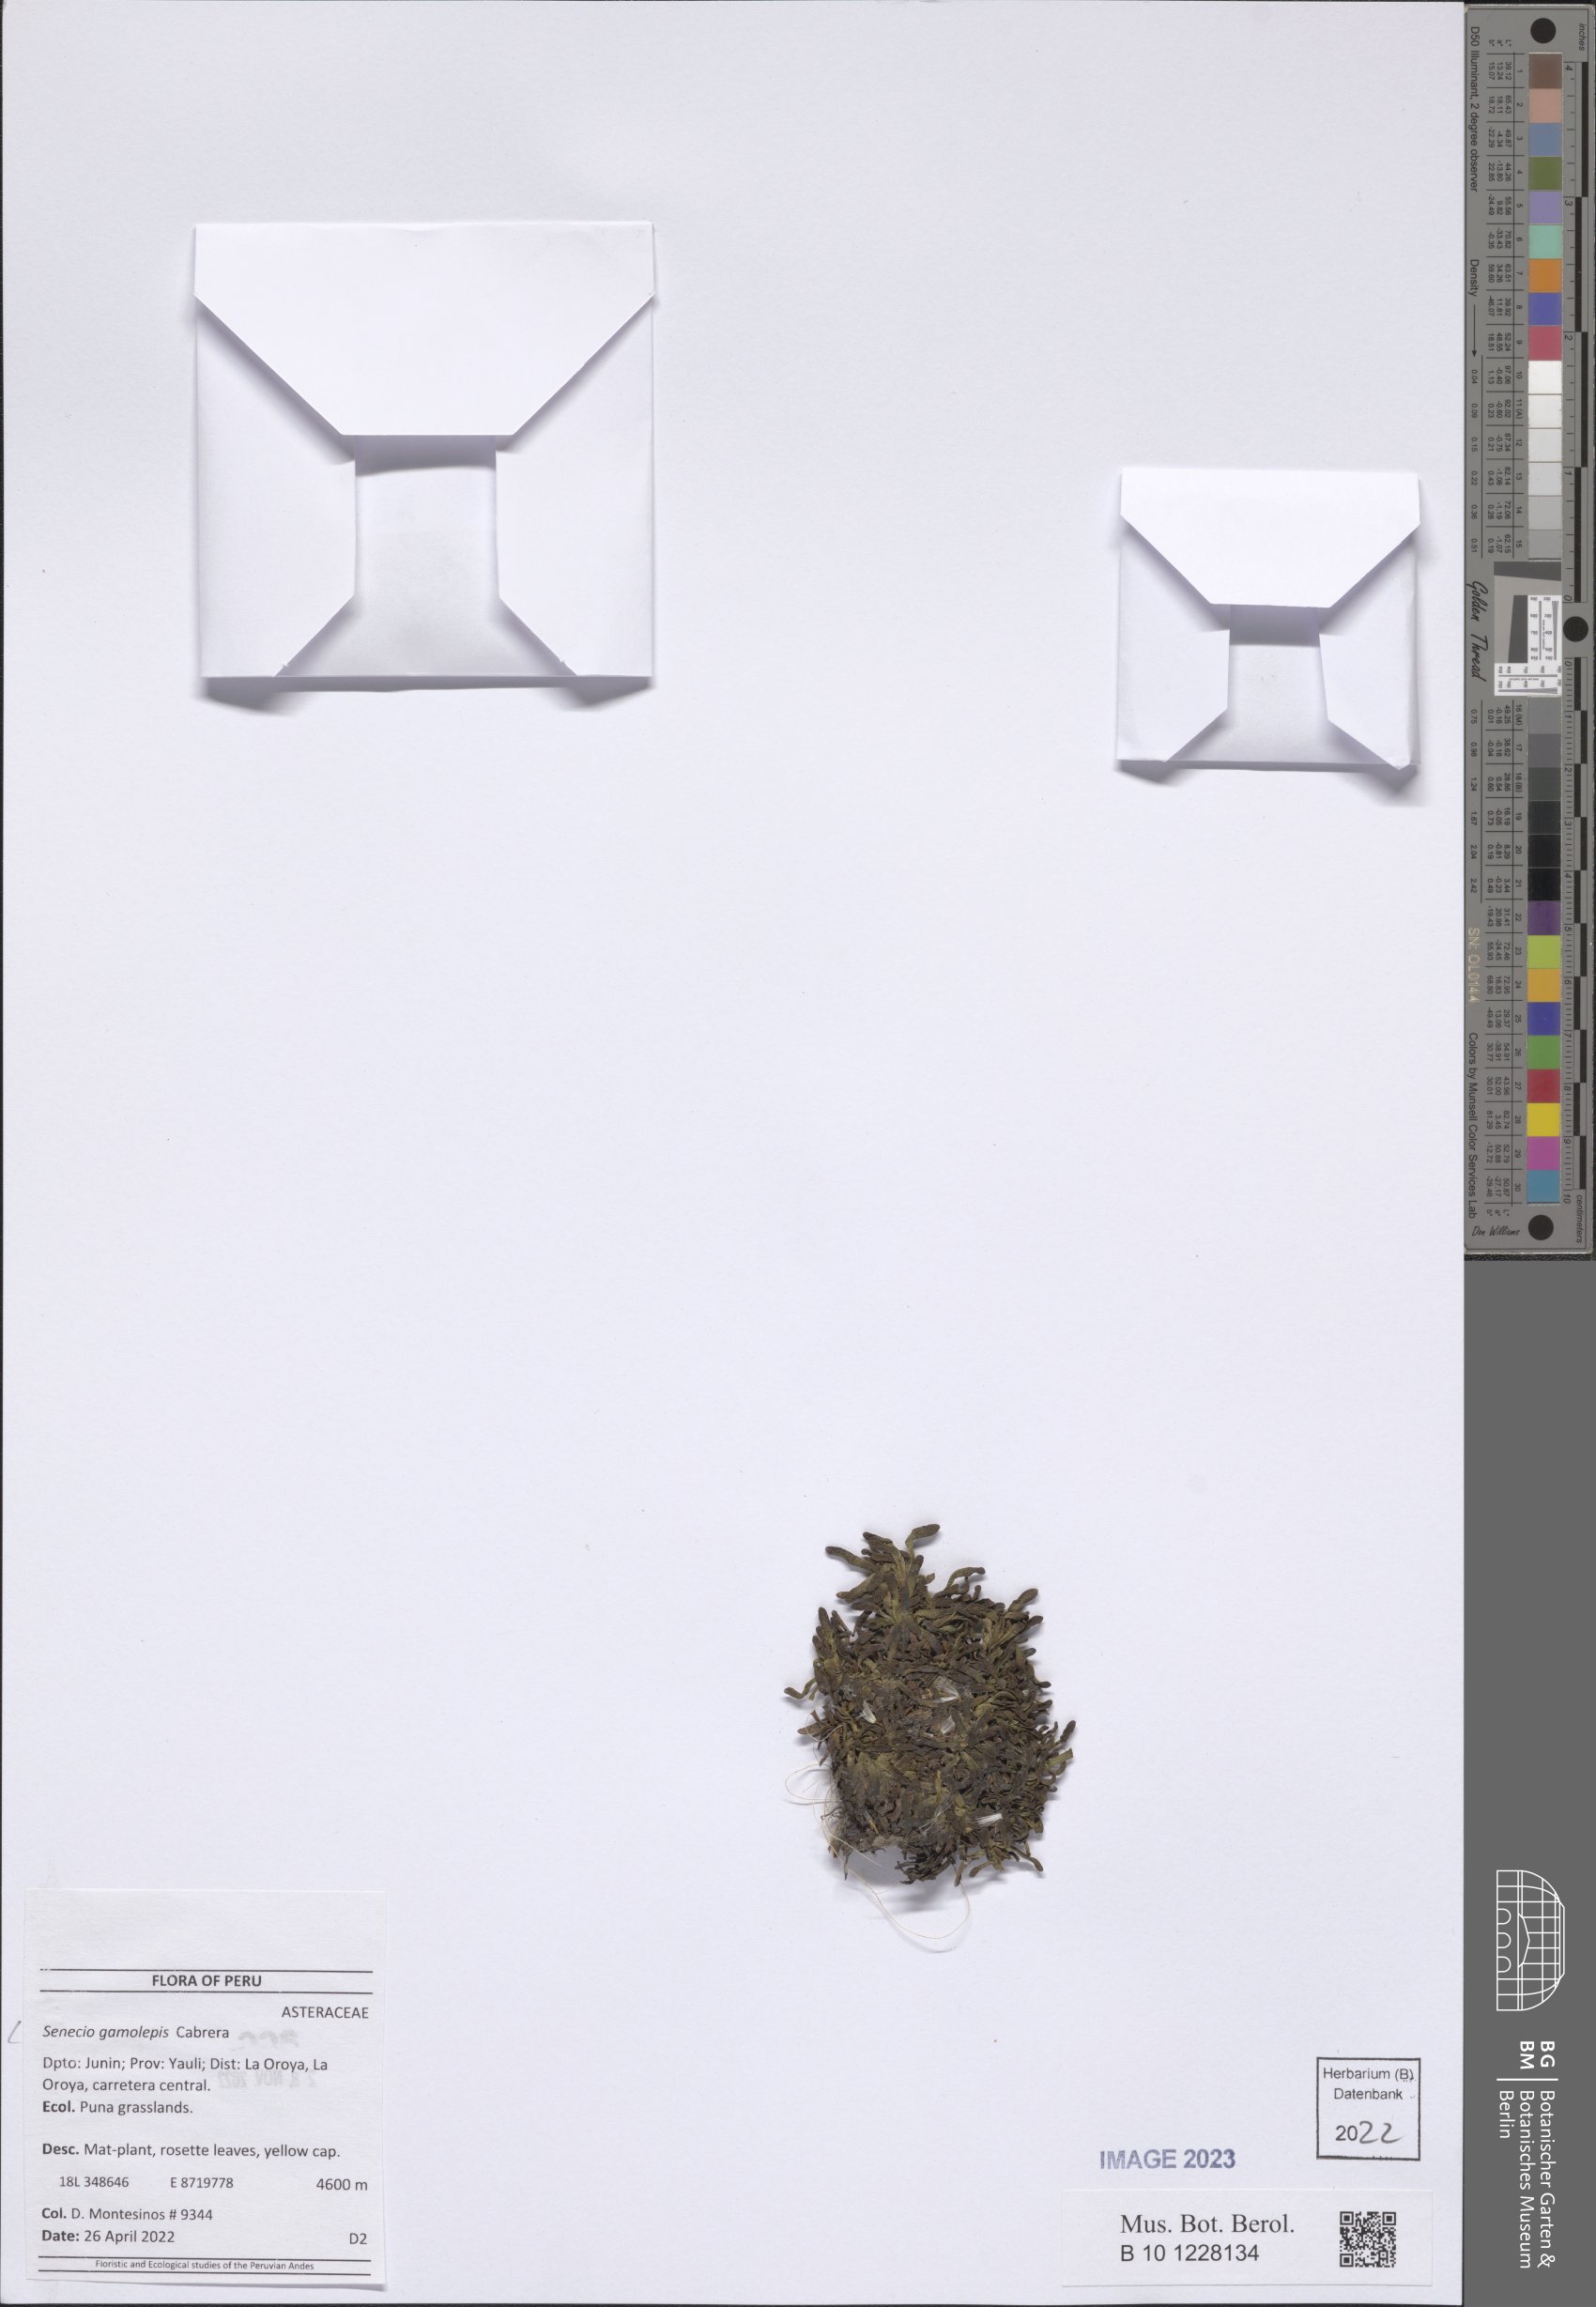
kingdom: Plantae
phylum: Tracheophyta
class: Magnoliopsida
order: Asterales
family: Asteraceae
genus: Senecio
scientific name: Senecio gamolepis
